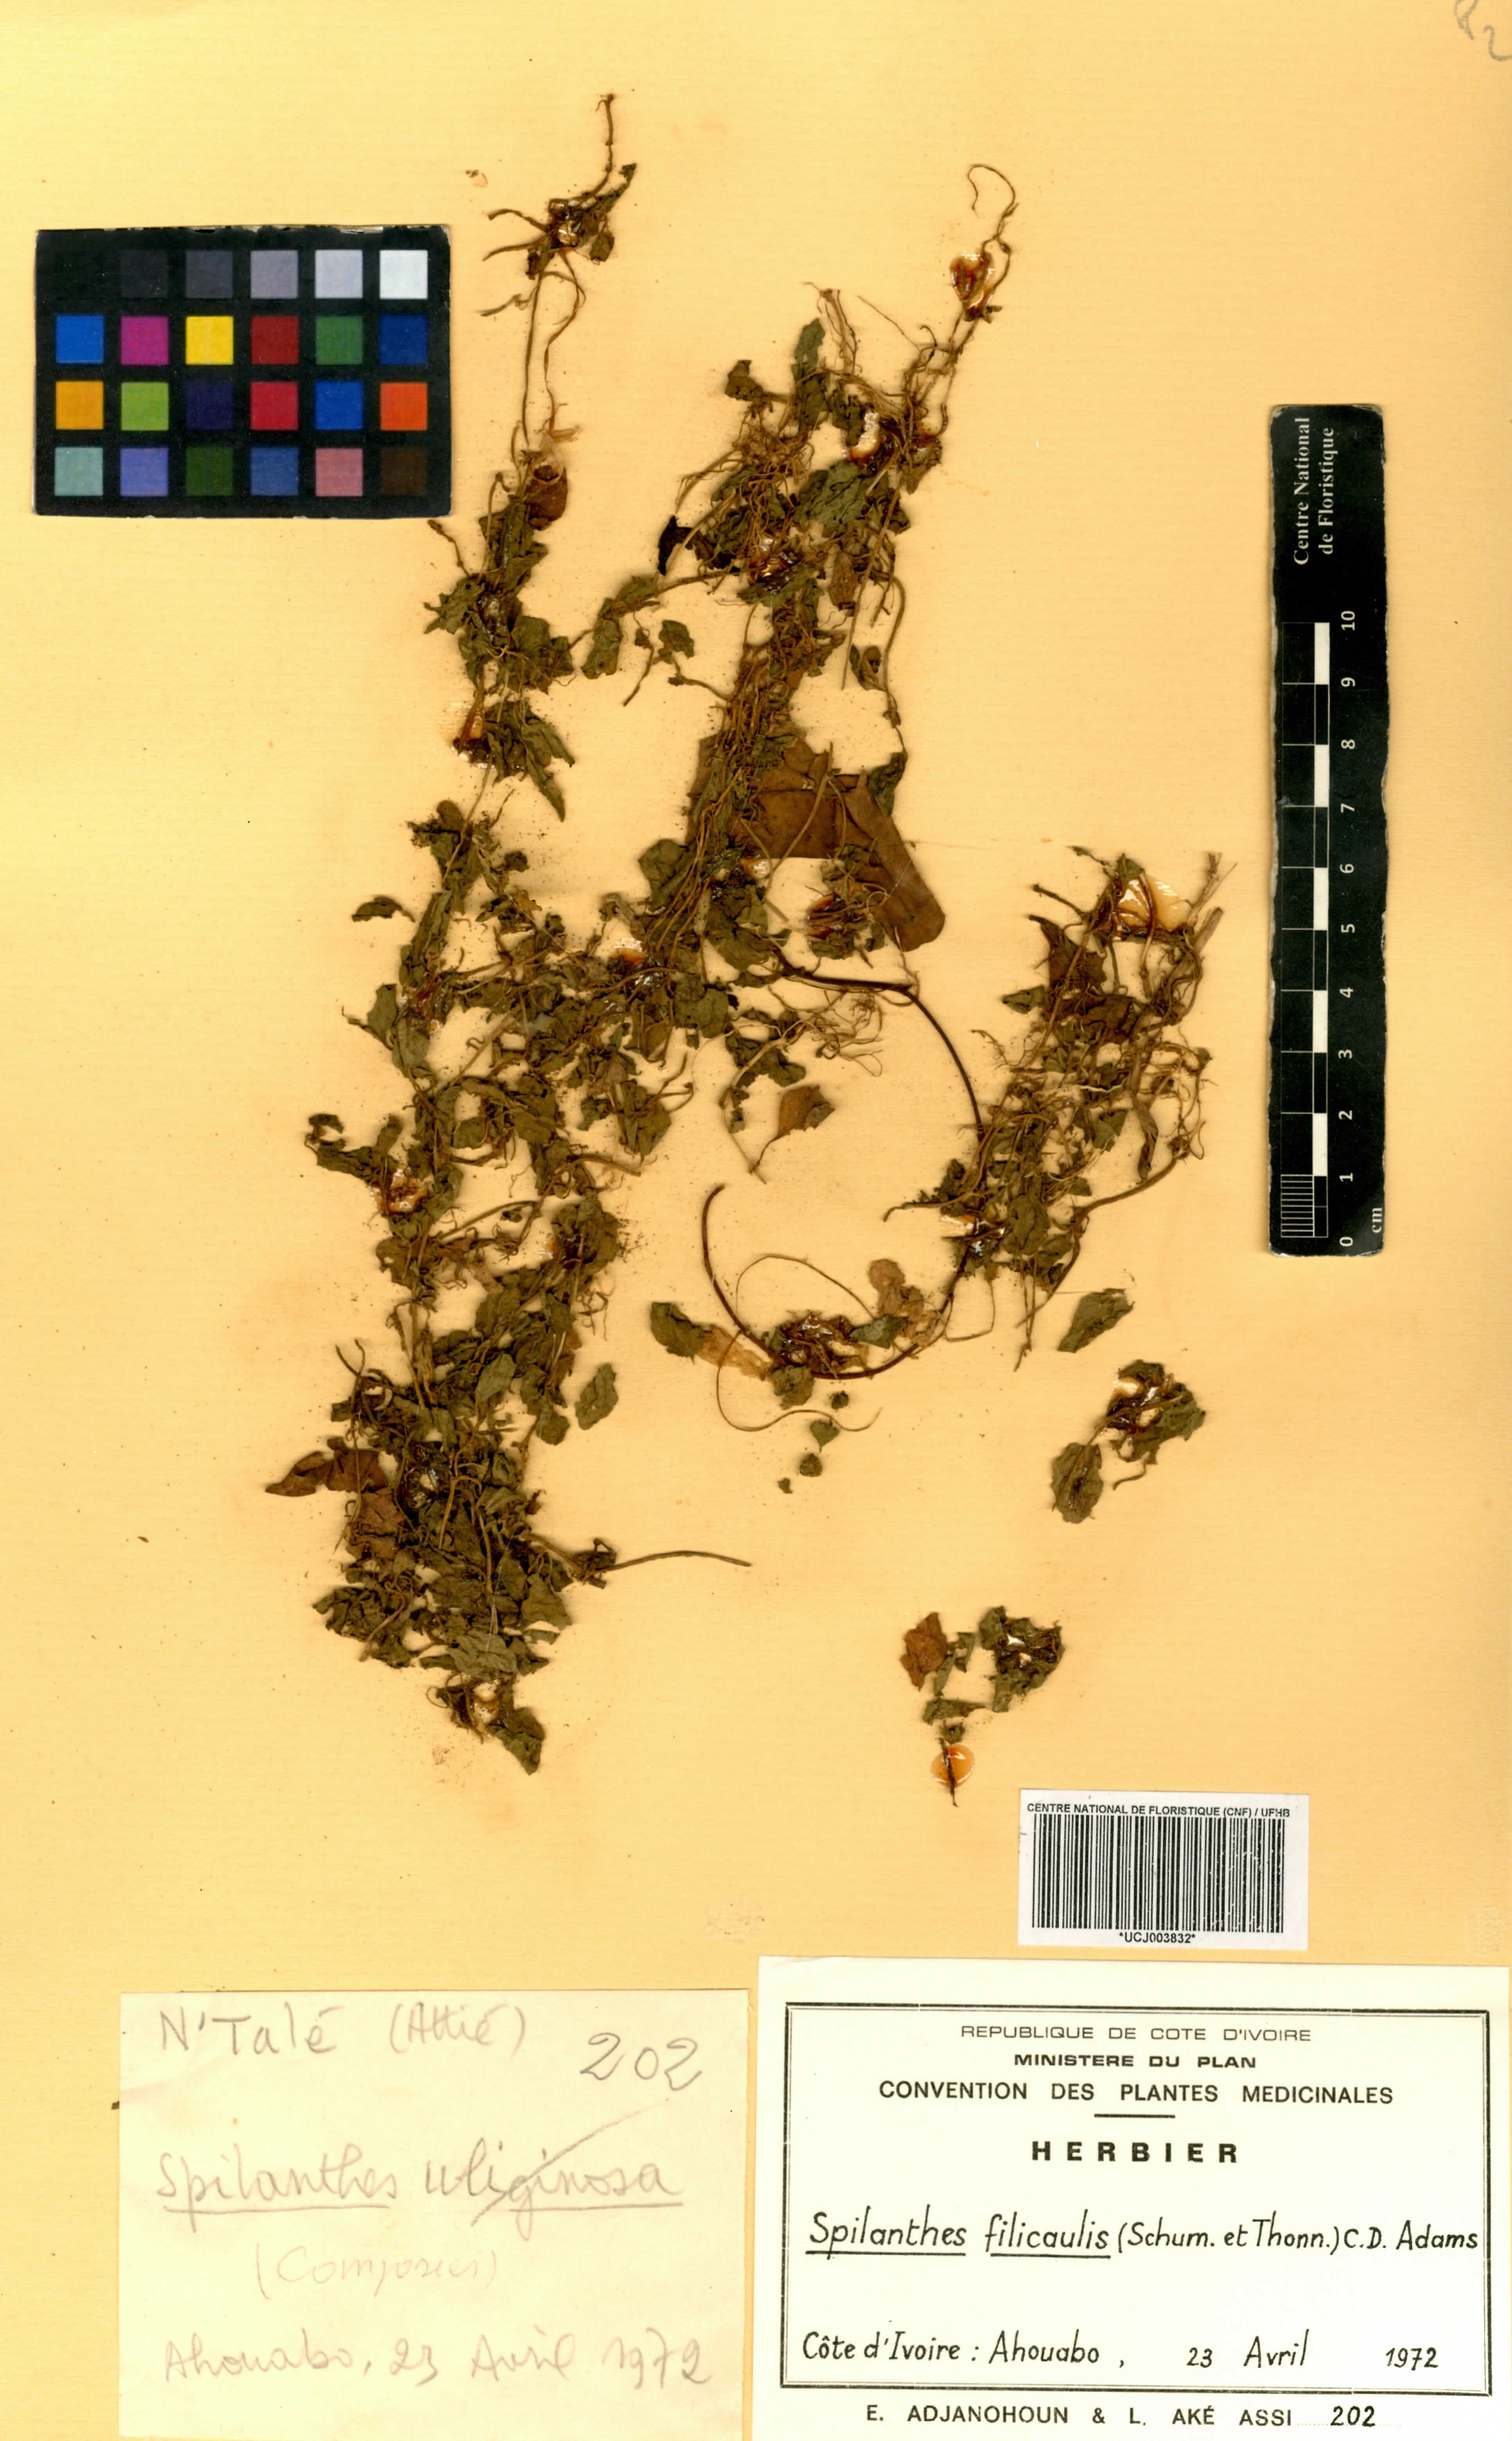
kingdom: Plantae
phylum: Tracheophyta
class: Magnoliopsida
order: Asterales
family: Asteraceae
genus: Acmella
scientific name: Acmella caulirhiza
